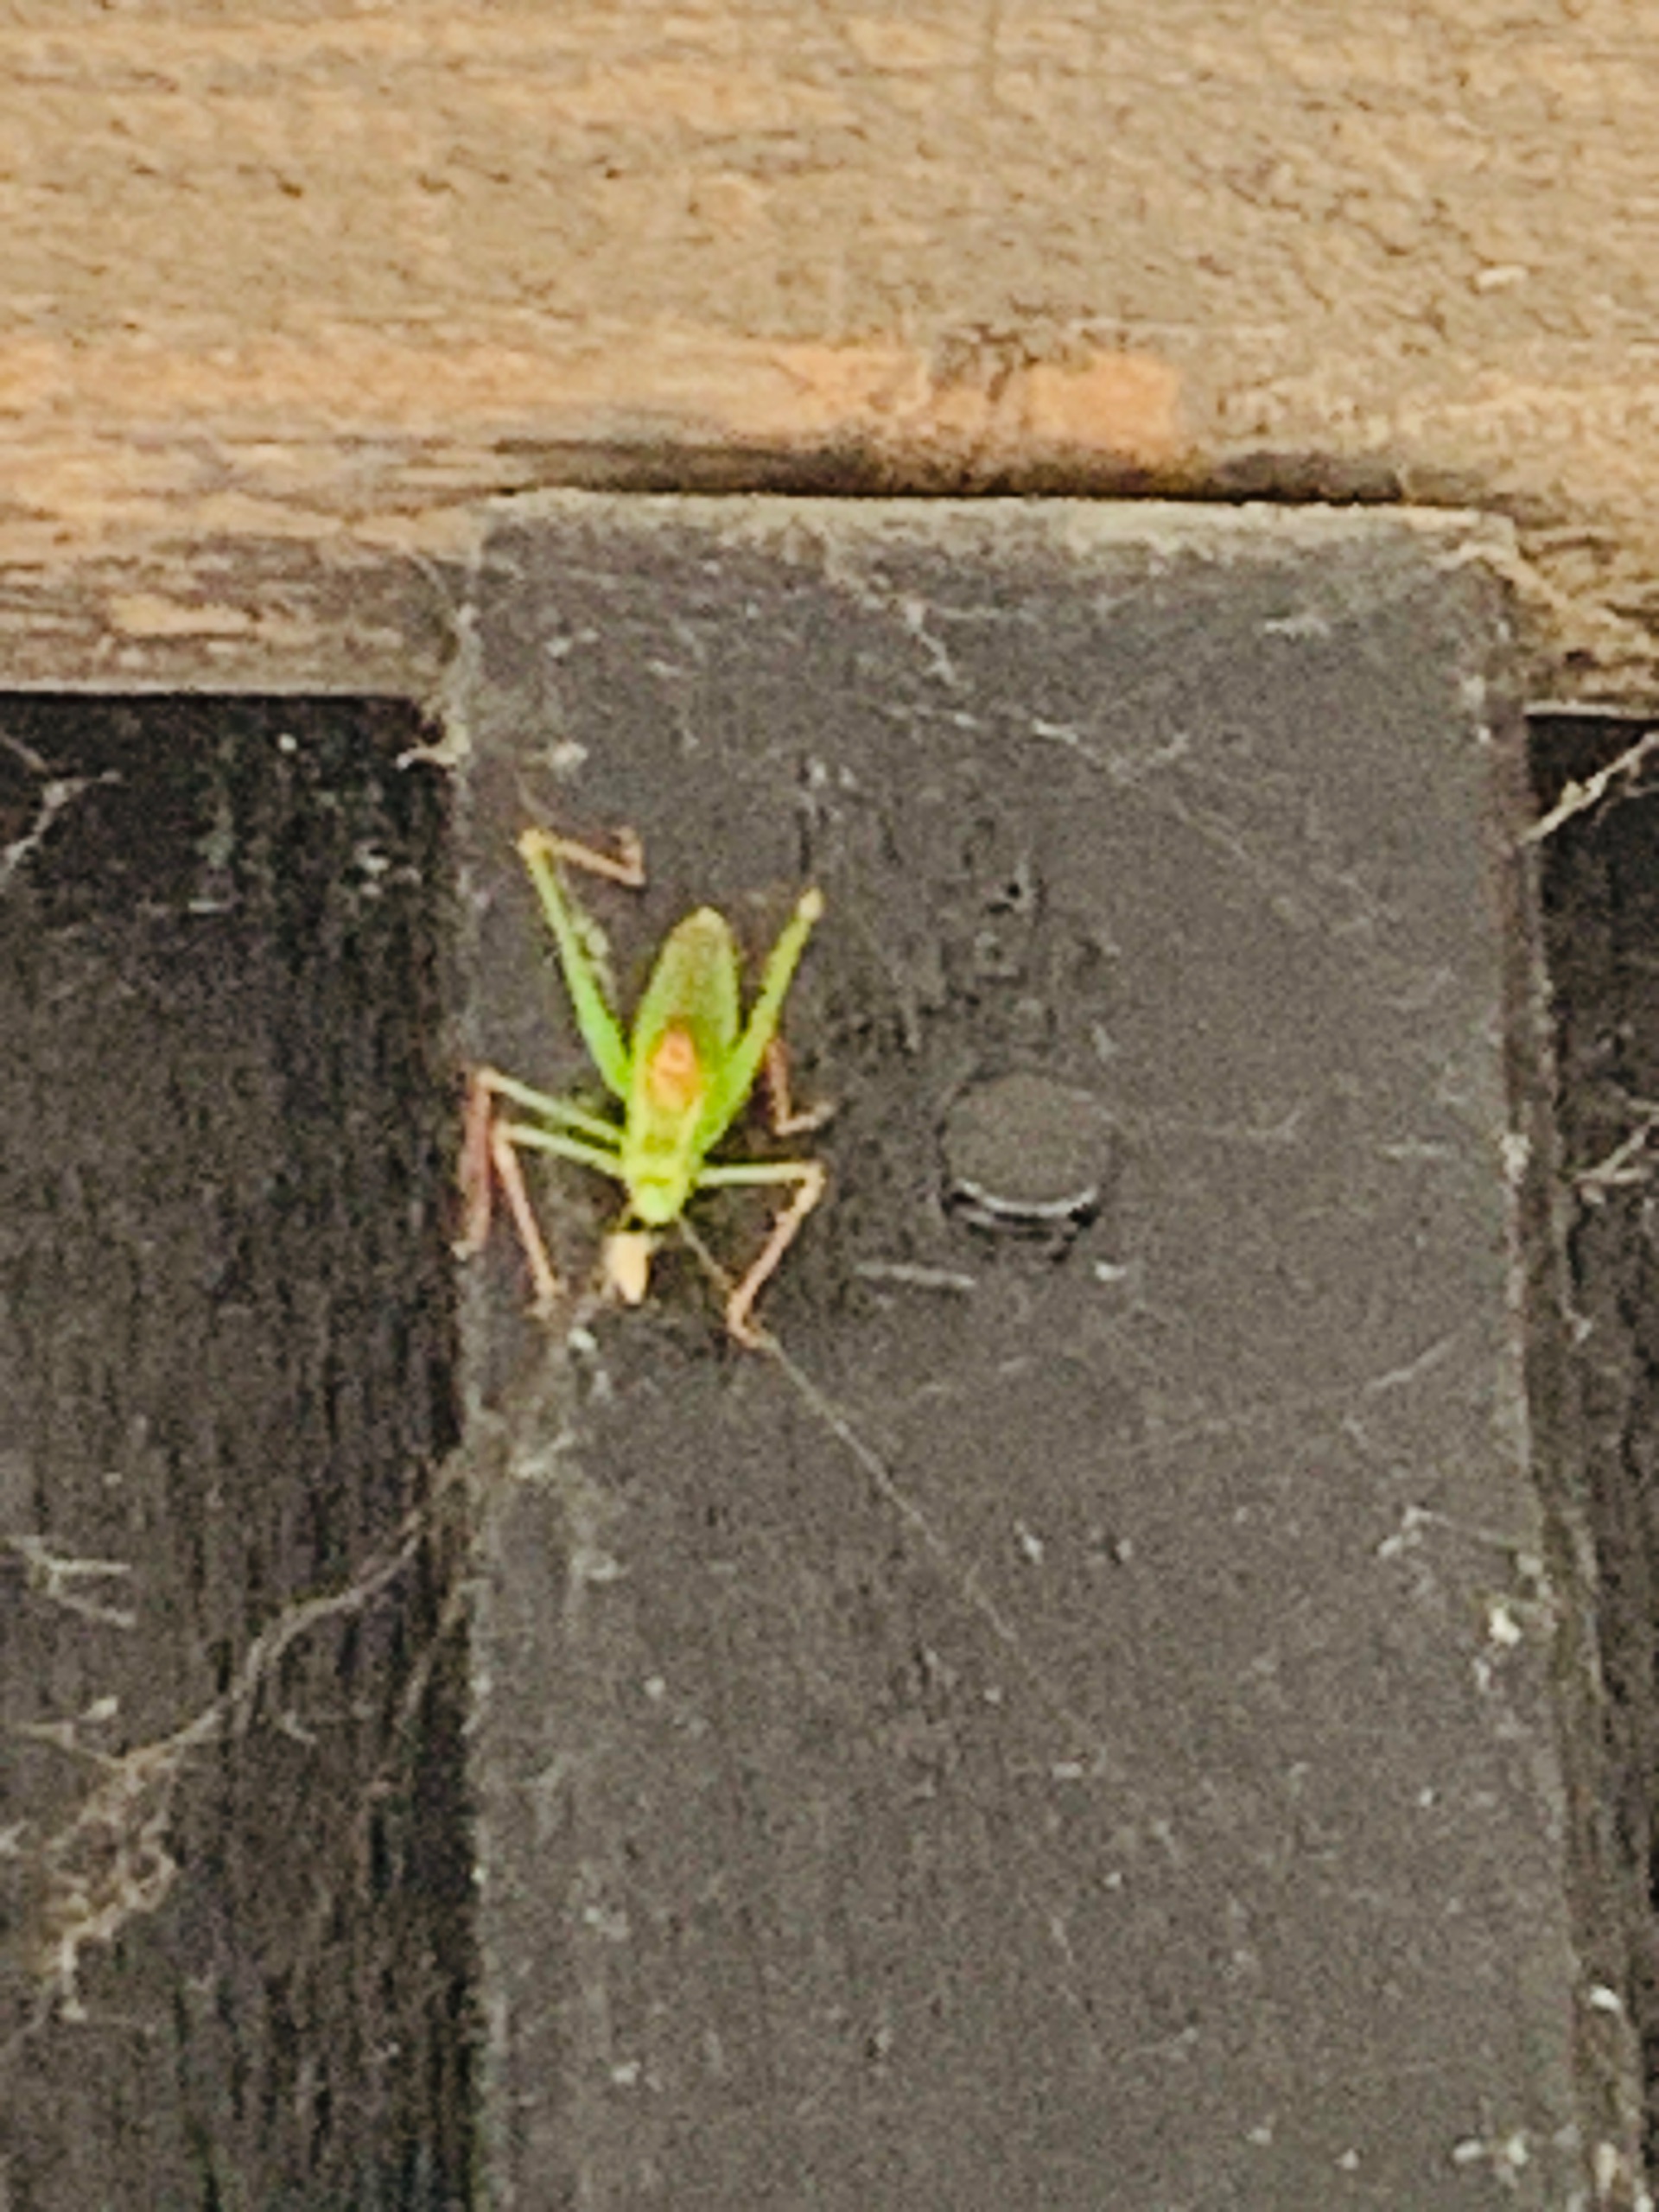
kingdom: Animalia
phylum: Arthropoda
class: Insecta
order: Orthoptera
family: Tettigoniidae
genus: Leptophyes
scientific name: Leptophyes punctatissima
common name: Krumknivgræshoppe
